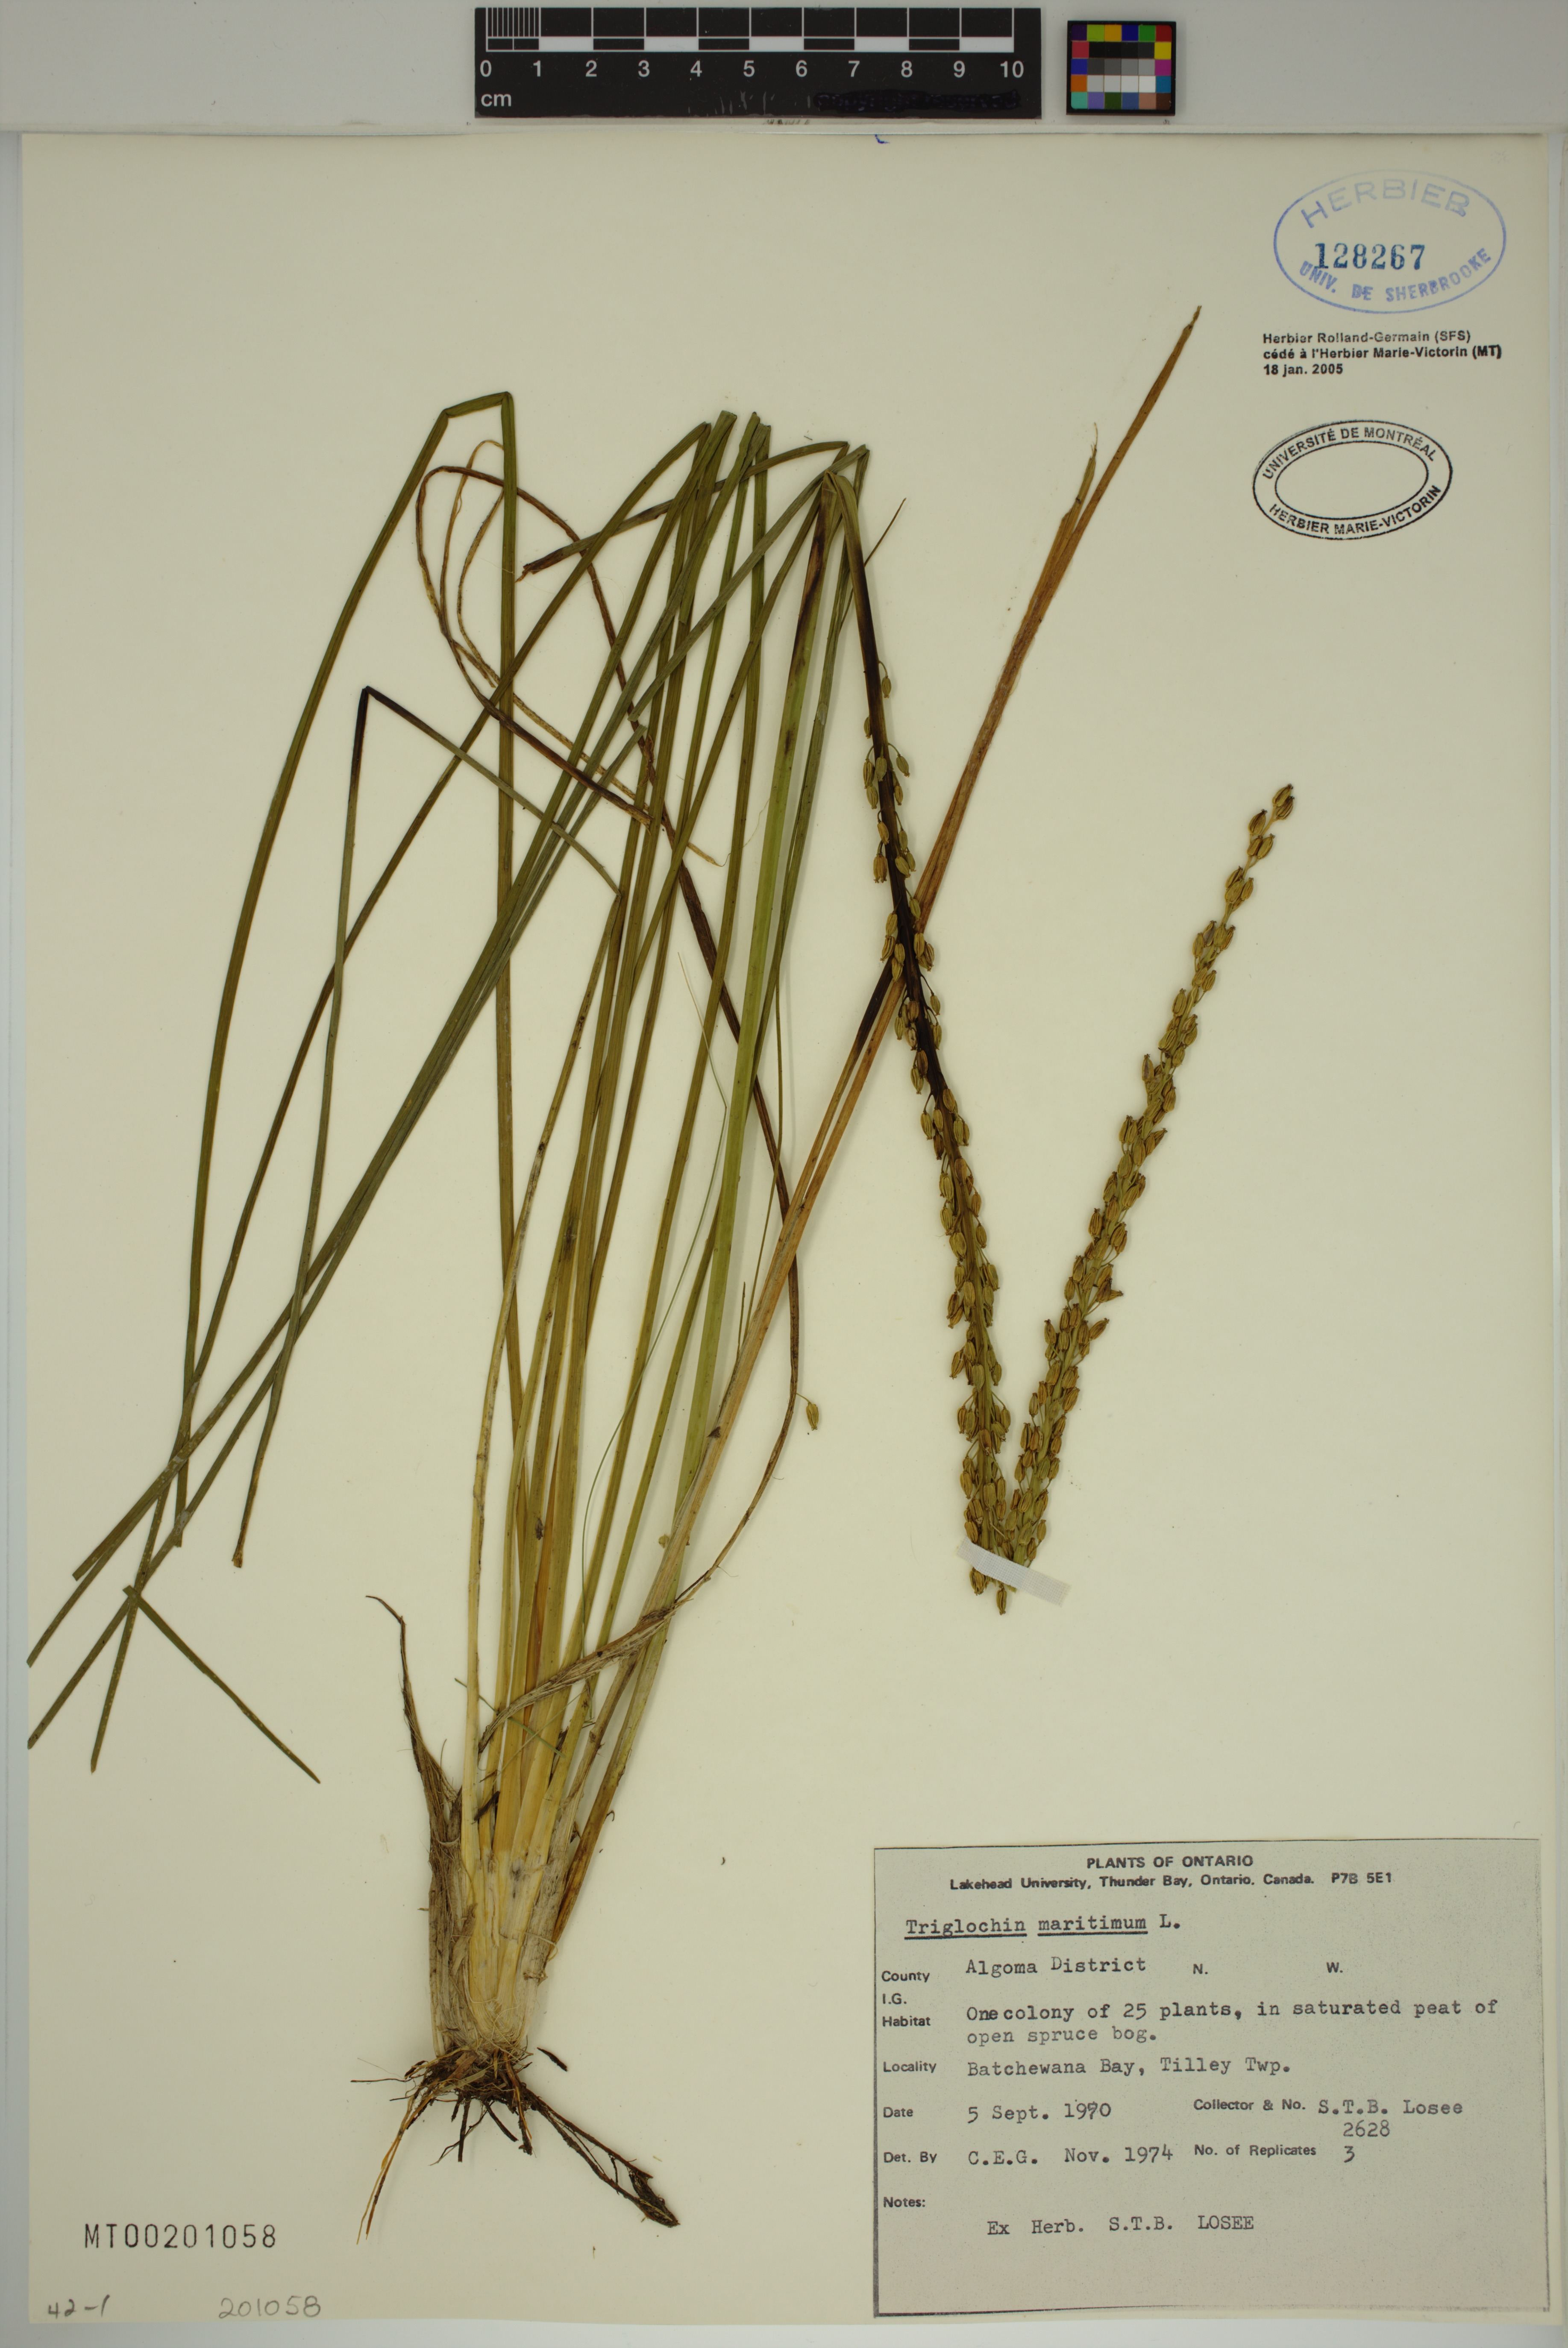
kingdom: Plantae
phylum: Tracheophyta
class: Liliopsida
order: Alismatales
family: Juncaginaceae
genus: Triglochin
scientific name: Triglochin maritima
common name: Sea arrowgrass
